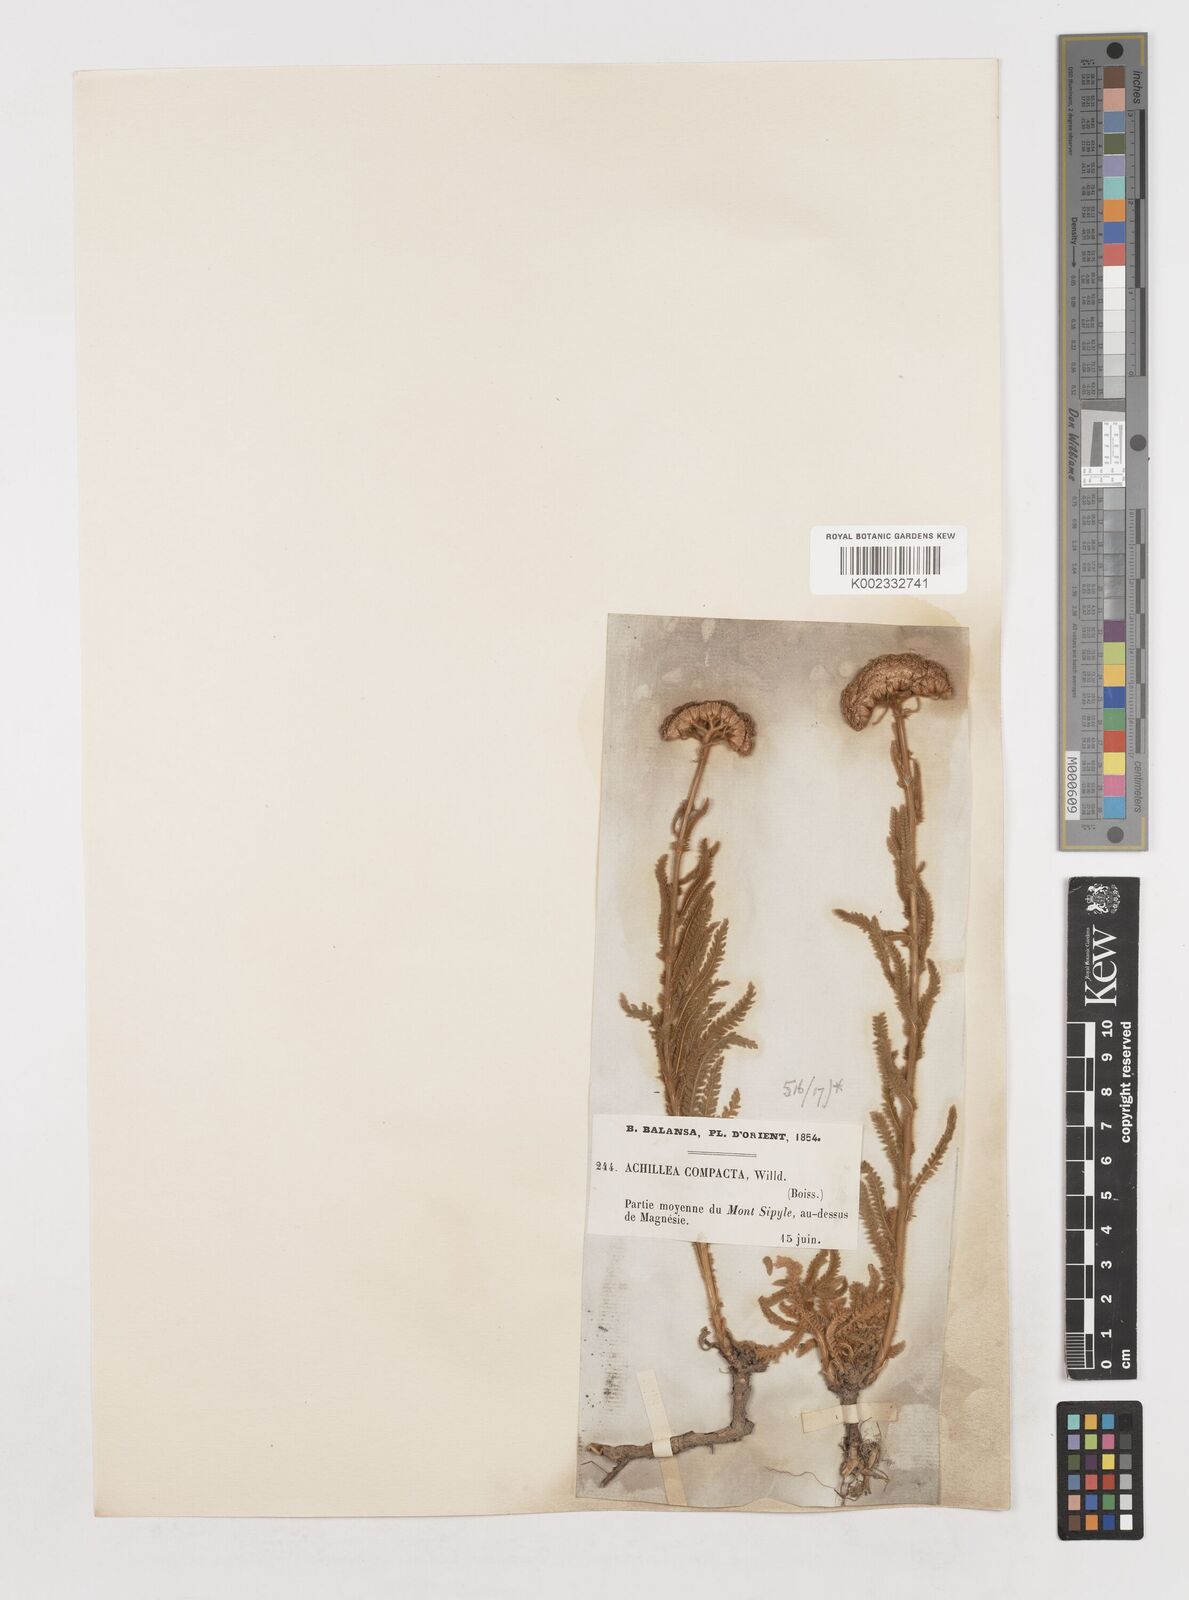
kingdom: Plantae
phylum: Tracheophyta
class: Magnoliopsida
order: Asterales
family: Asteraceae
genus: Achillea
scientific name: Achillea coarctata
